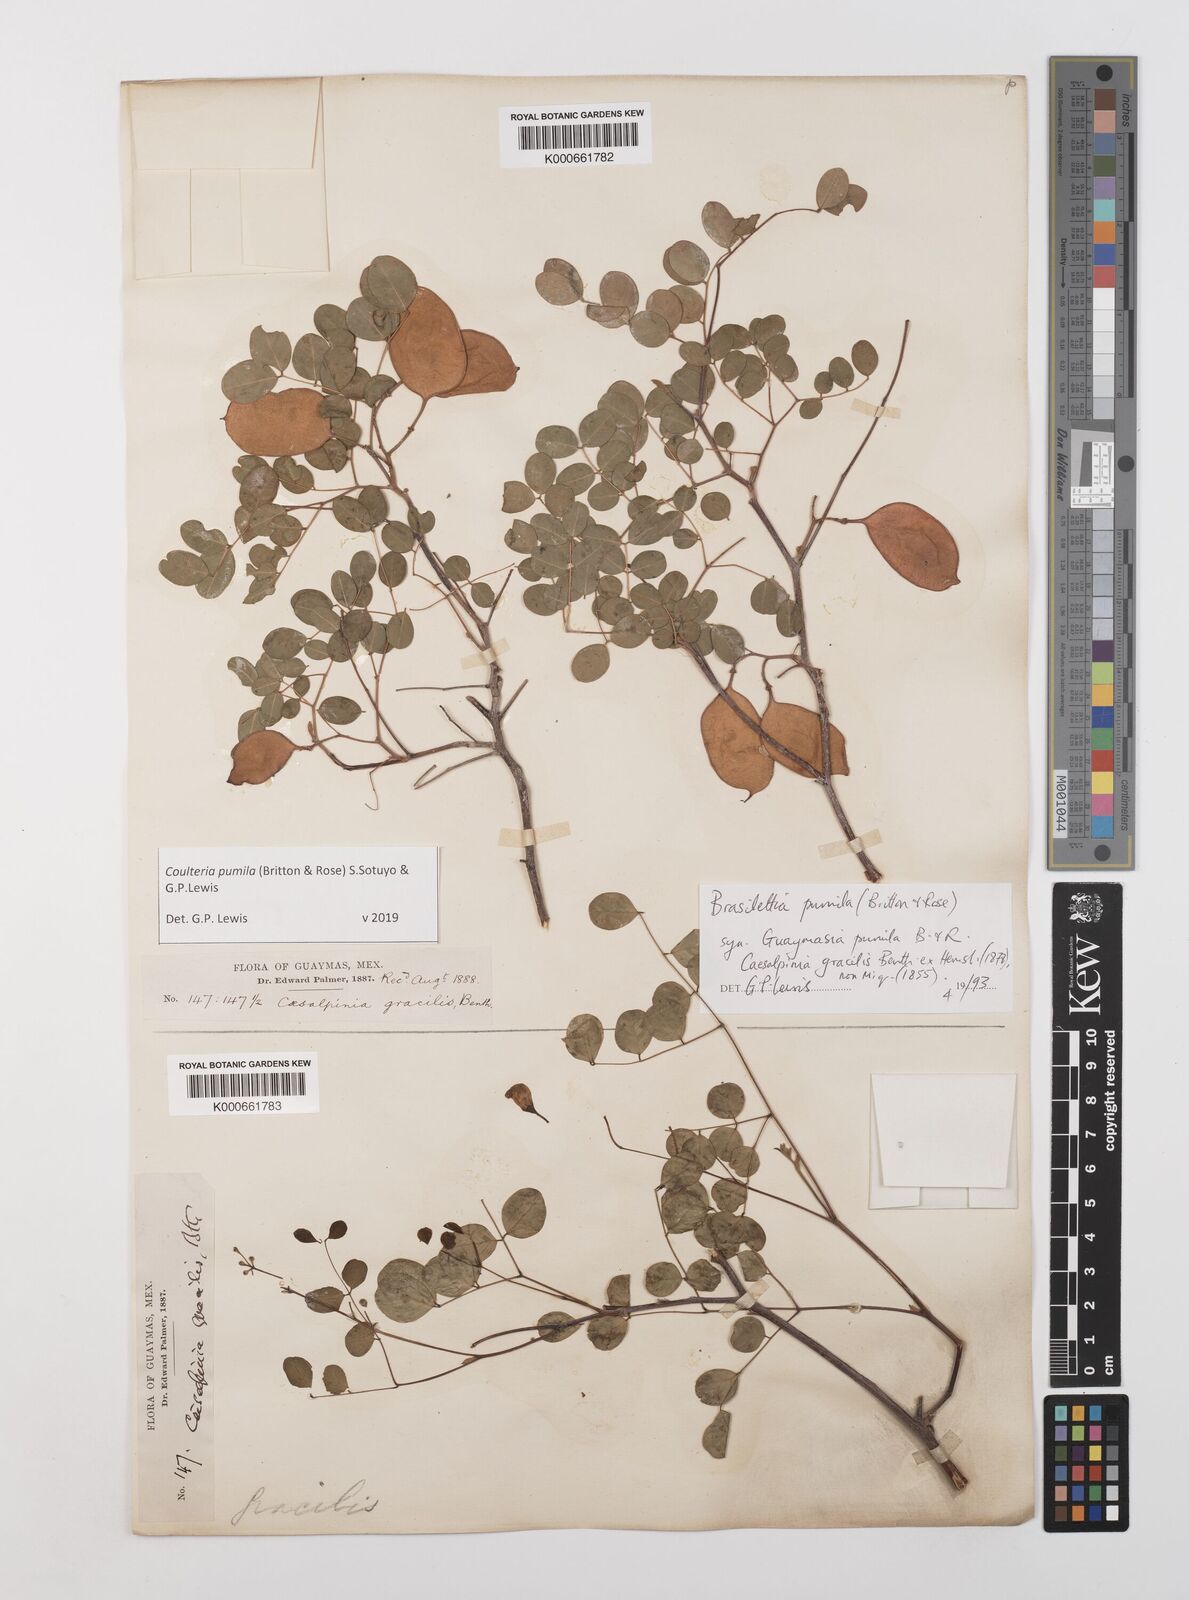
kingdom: Plantae
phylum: Tracheophyta
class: Magnoliopsida
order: Fabales
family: Fabaceae
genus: Coulteria
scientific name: Coulteria
